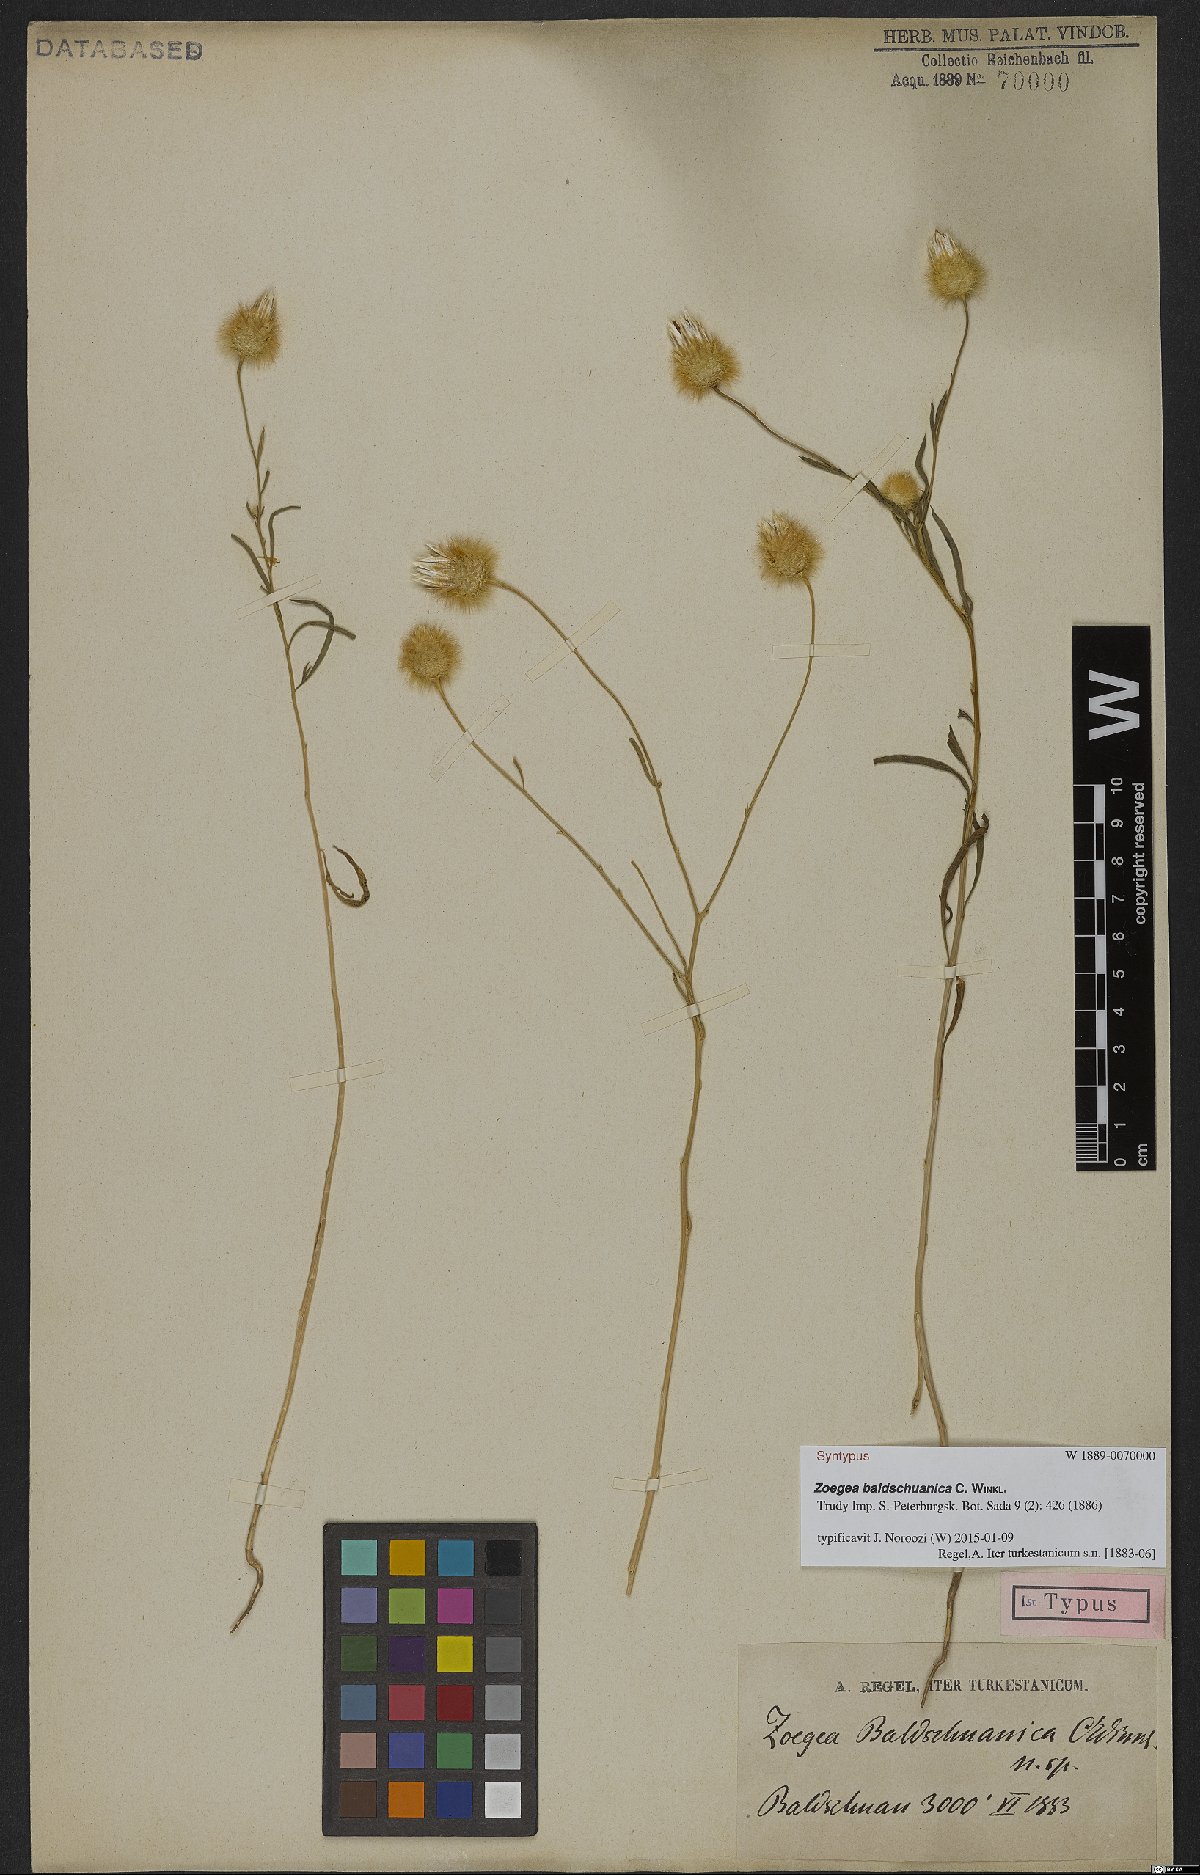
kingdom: Plantae
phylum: Tracheophyta
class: Magnoliopsida
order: Asterales
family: Asteraceae
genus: Zoegea
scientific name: Zoegea crinita
